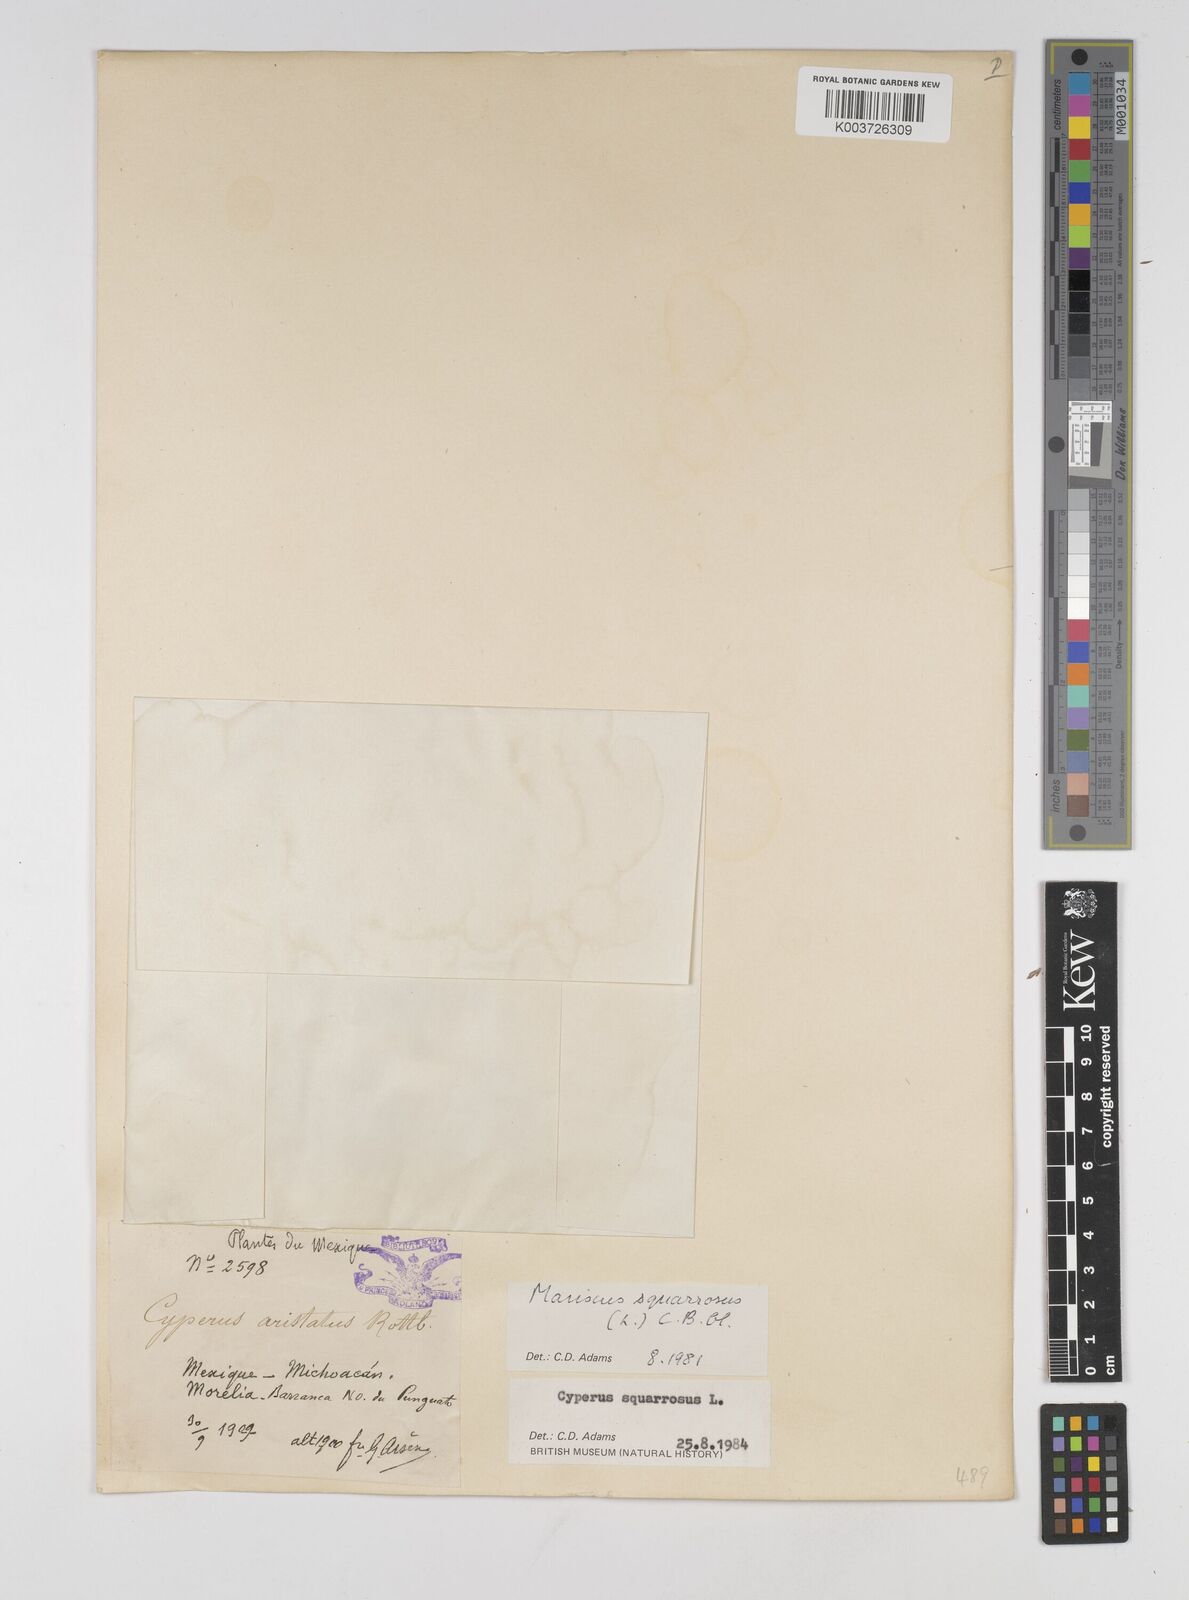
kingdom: Plantae
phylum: Tracheophyta
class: Liliopsida
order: Poales
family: Cyperaceae
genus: Cyperus
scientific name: Cyperus squarrosus
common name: Awned cyperus
